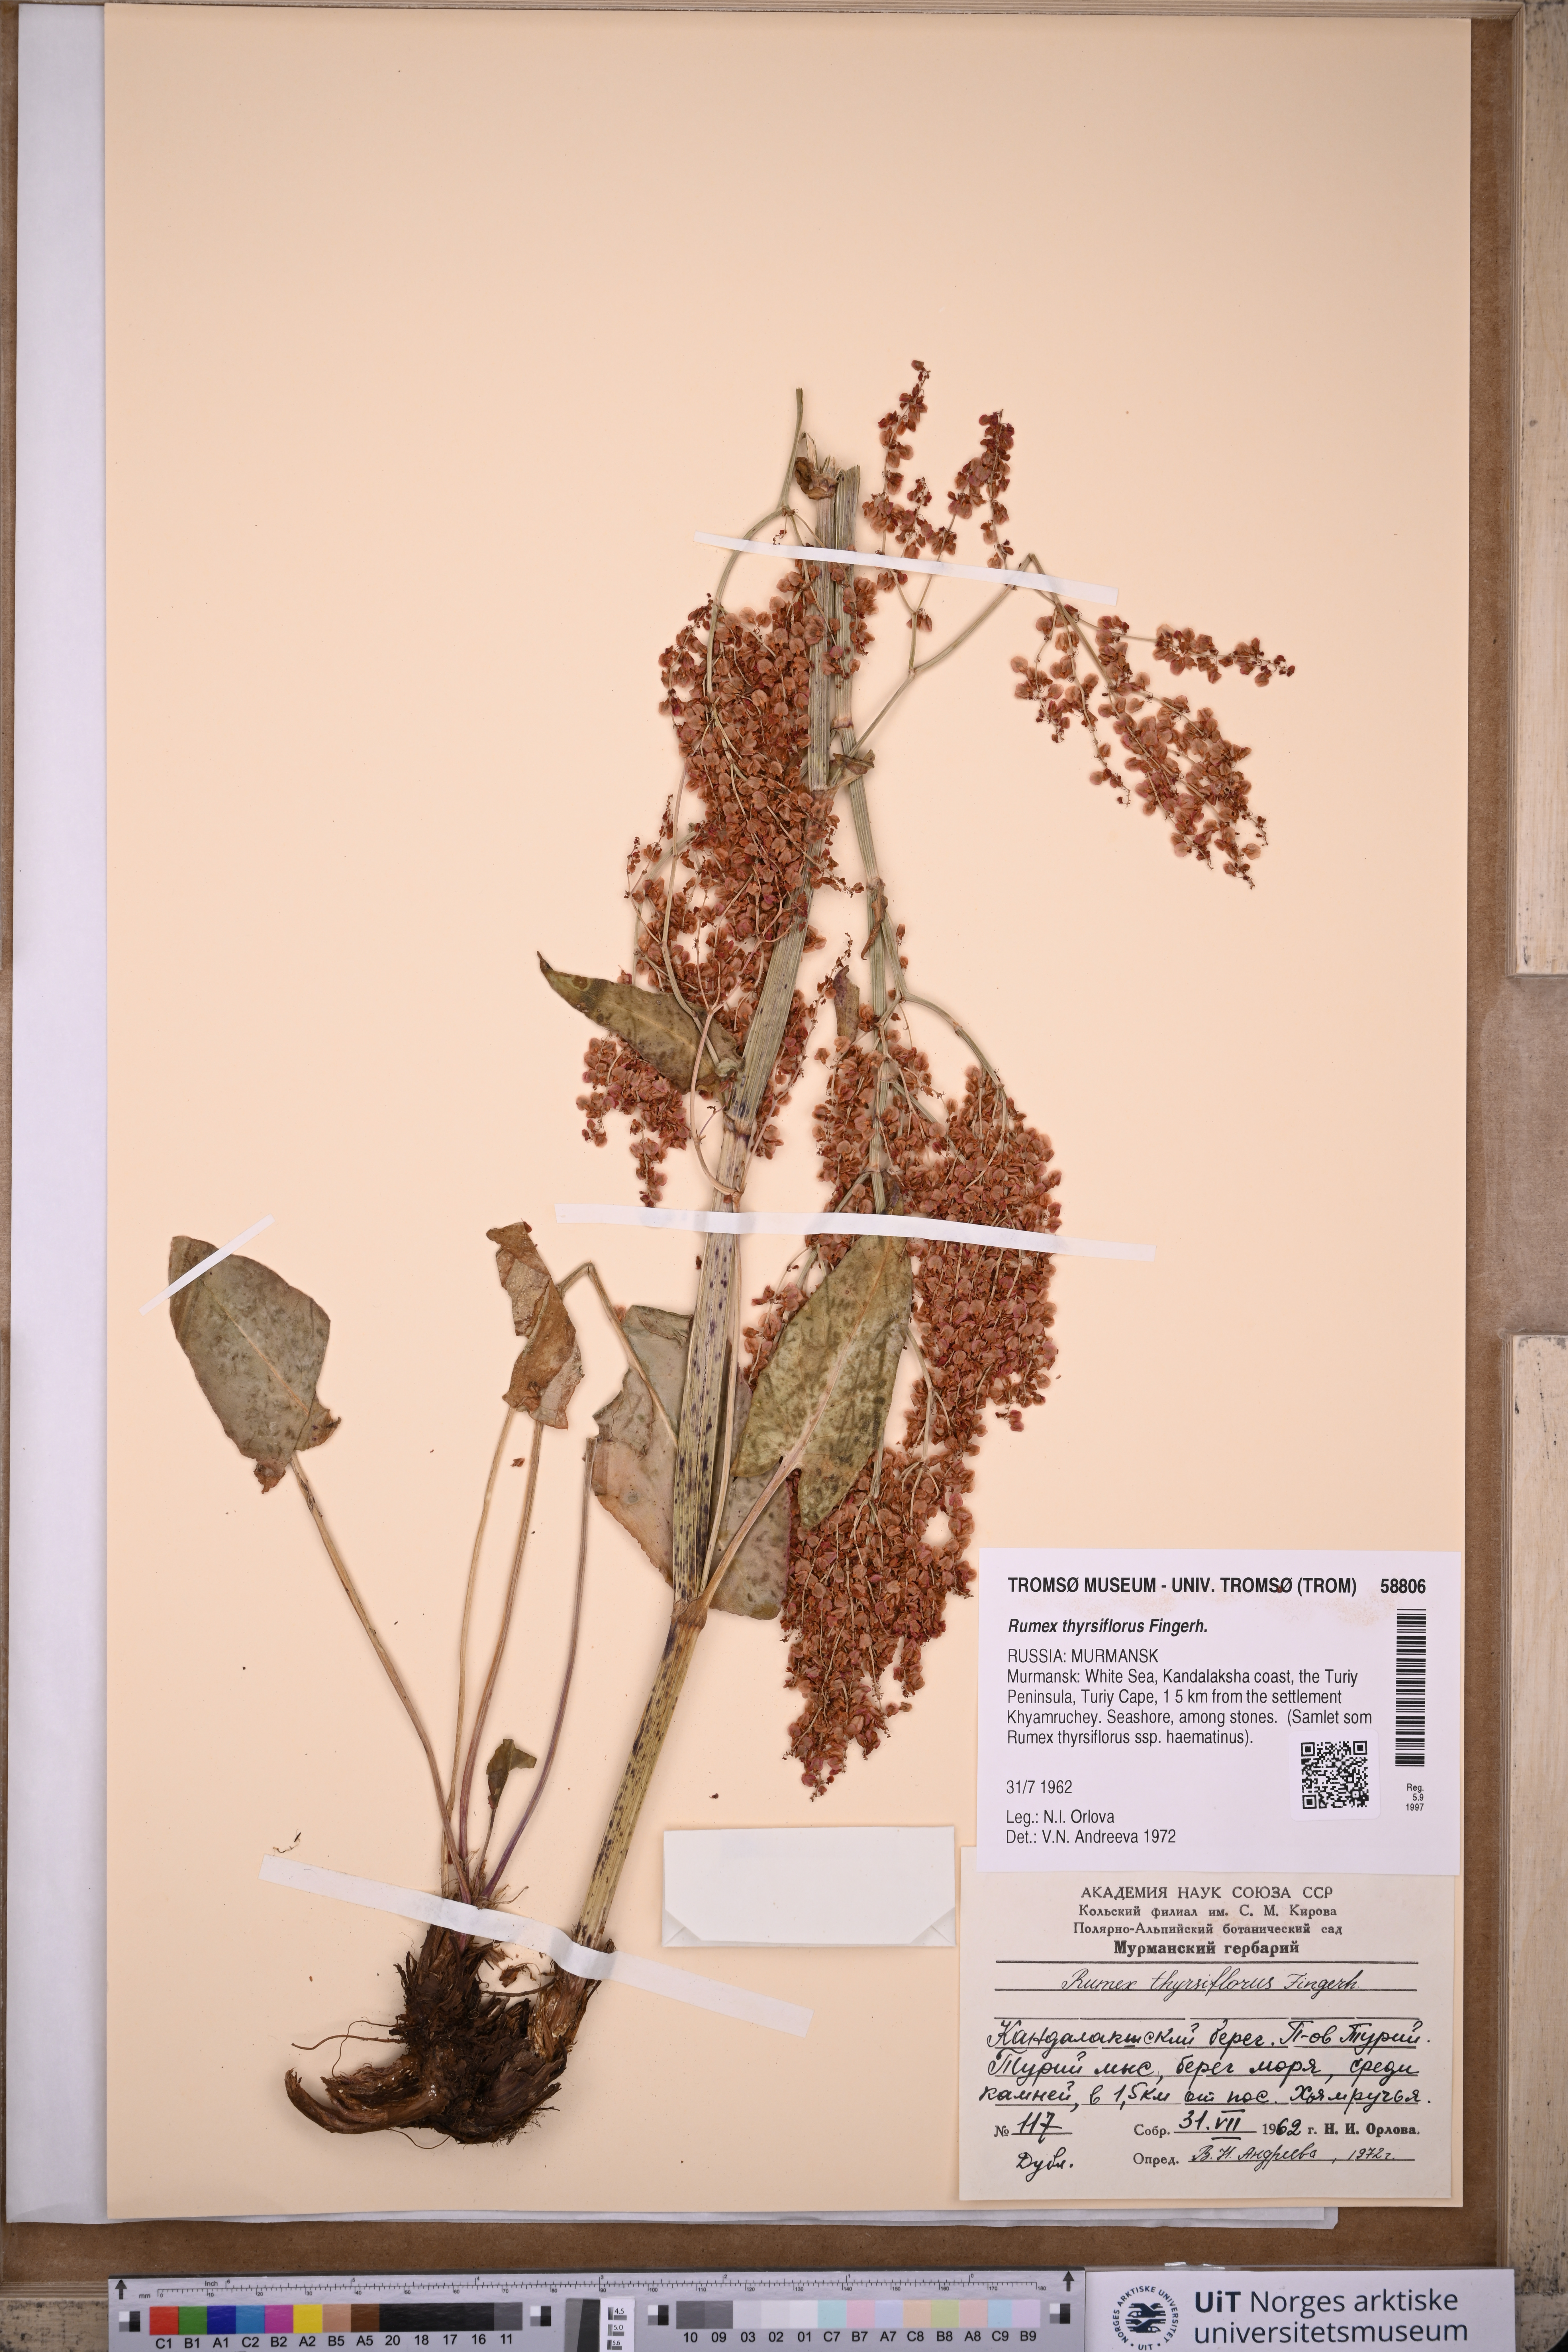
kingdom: Plantae
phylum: Tracheophyta
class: Magnoliopsida
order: Caryophyllales
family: Polygonaceae
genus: Rumex
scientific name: Rumex thyrsiflorus
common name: Garden sorrel
